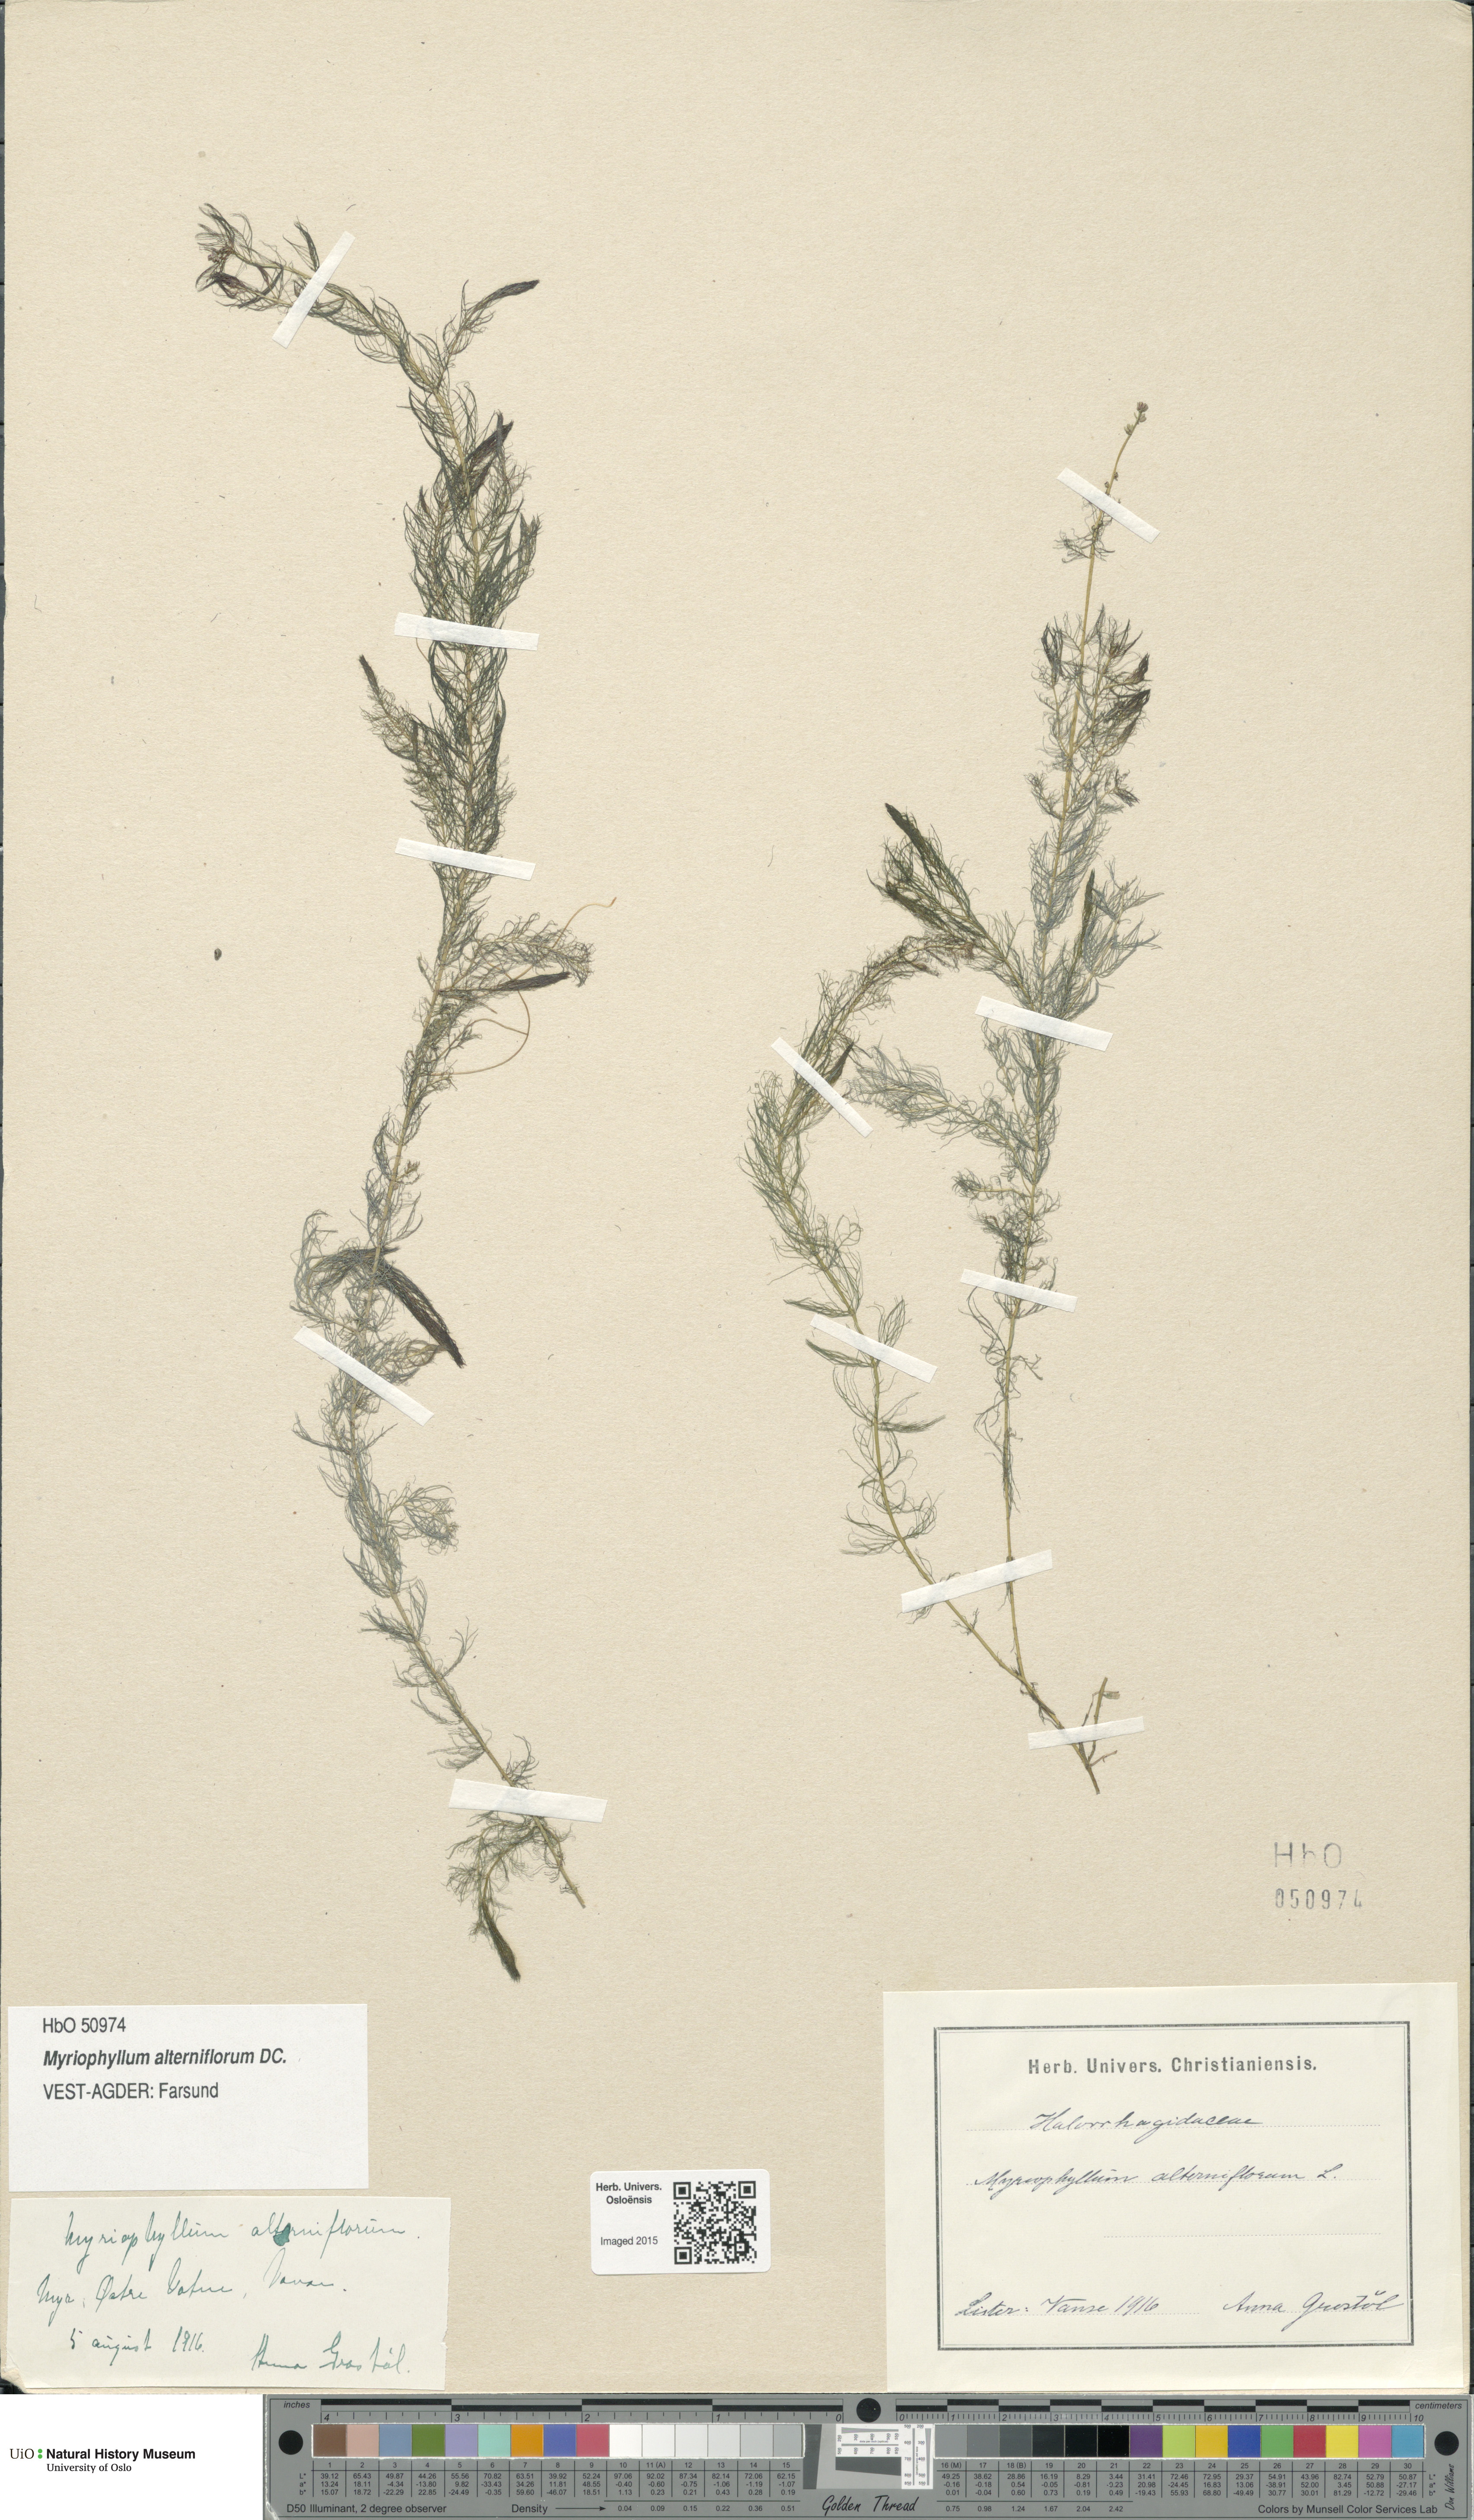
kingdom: Plantae
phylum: Tracheophyta
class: Magnoliopsida
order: Saxifragales
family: Haloragaceae
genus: Myriophyllum
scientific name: Myriophyllum alterniflorum
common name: Alternate water-milfoil
